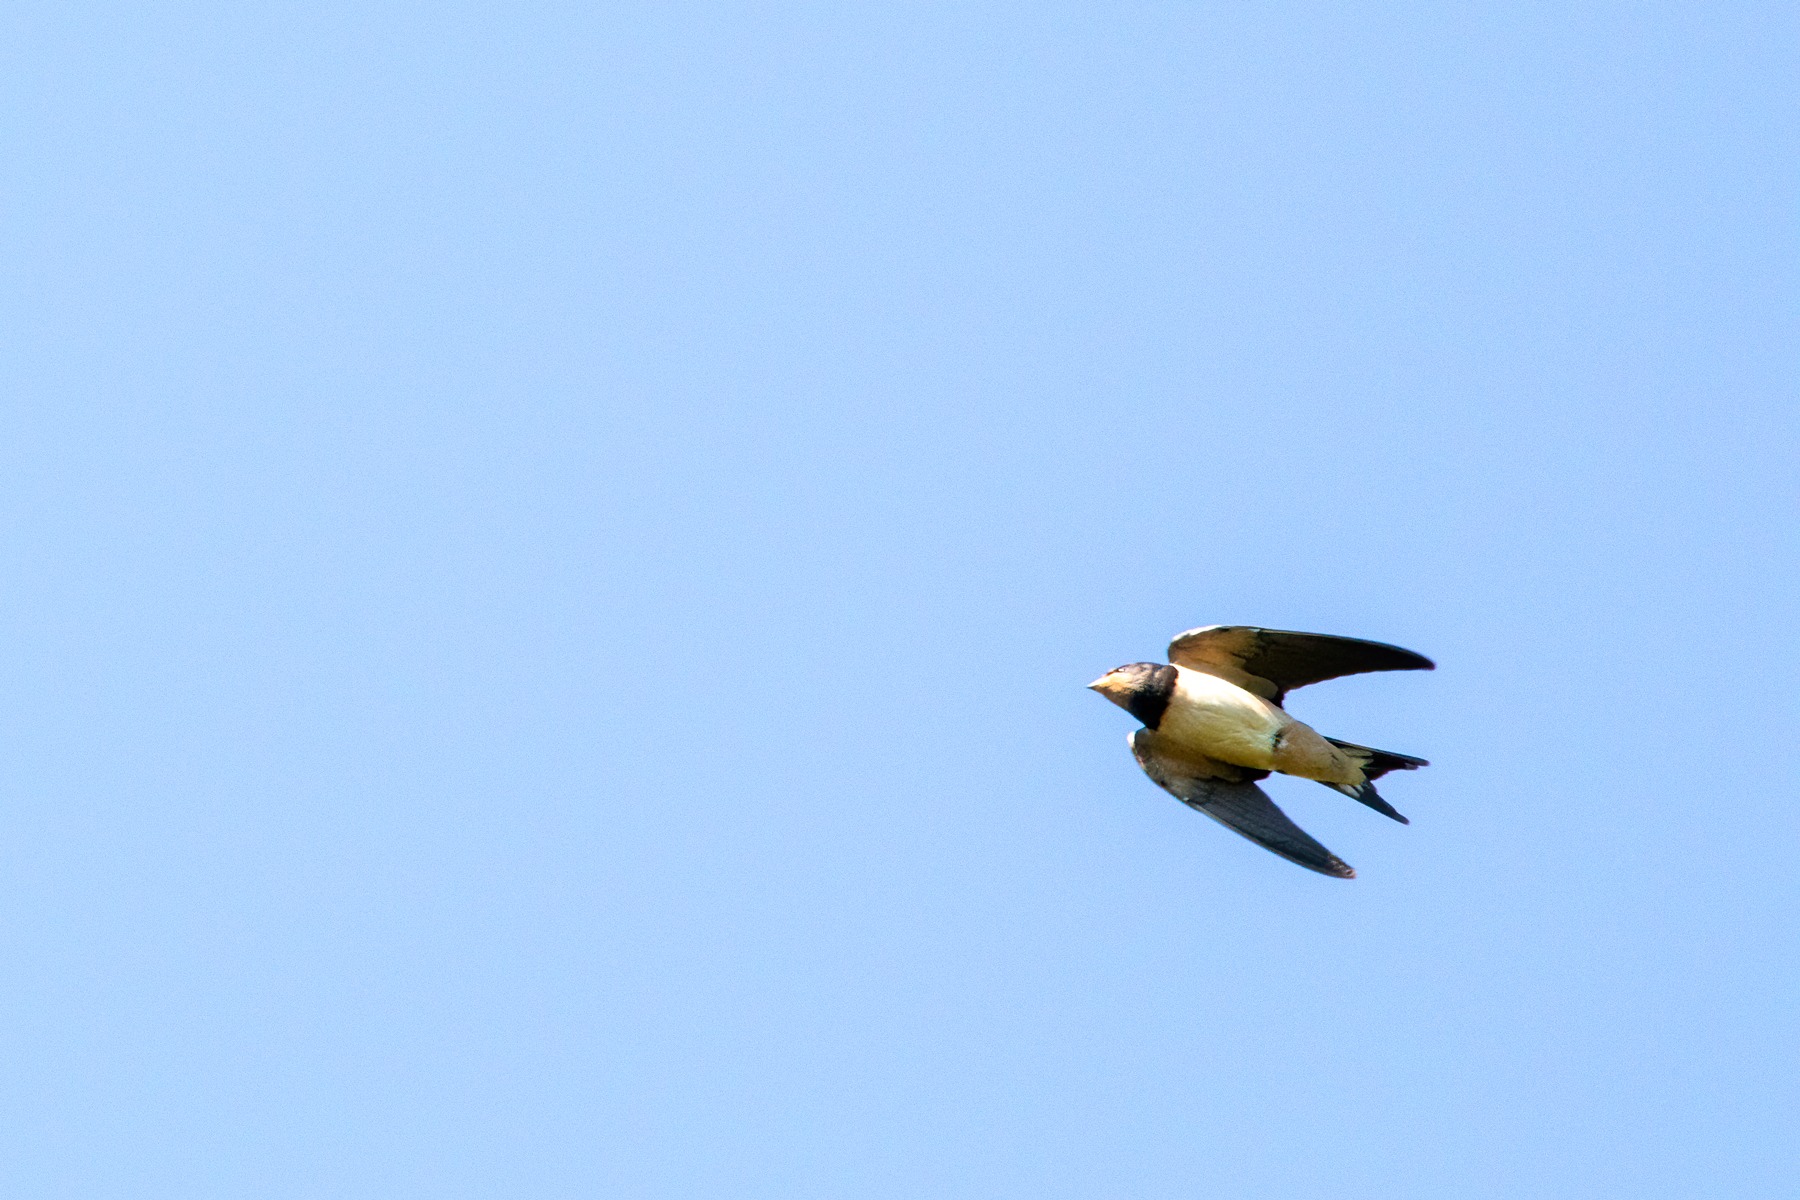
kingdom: Animalia
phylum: Chordata
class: Aves
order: Passeriformes
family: Hirundinidae
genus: Hirundo
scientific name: Hirundo rustica
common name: Landsvale
